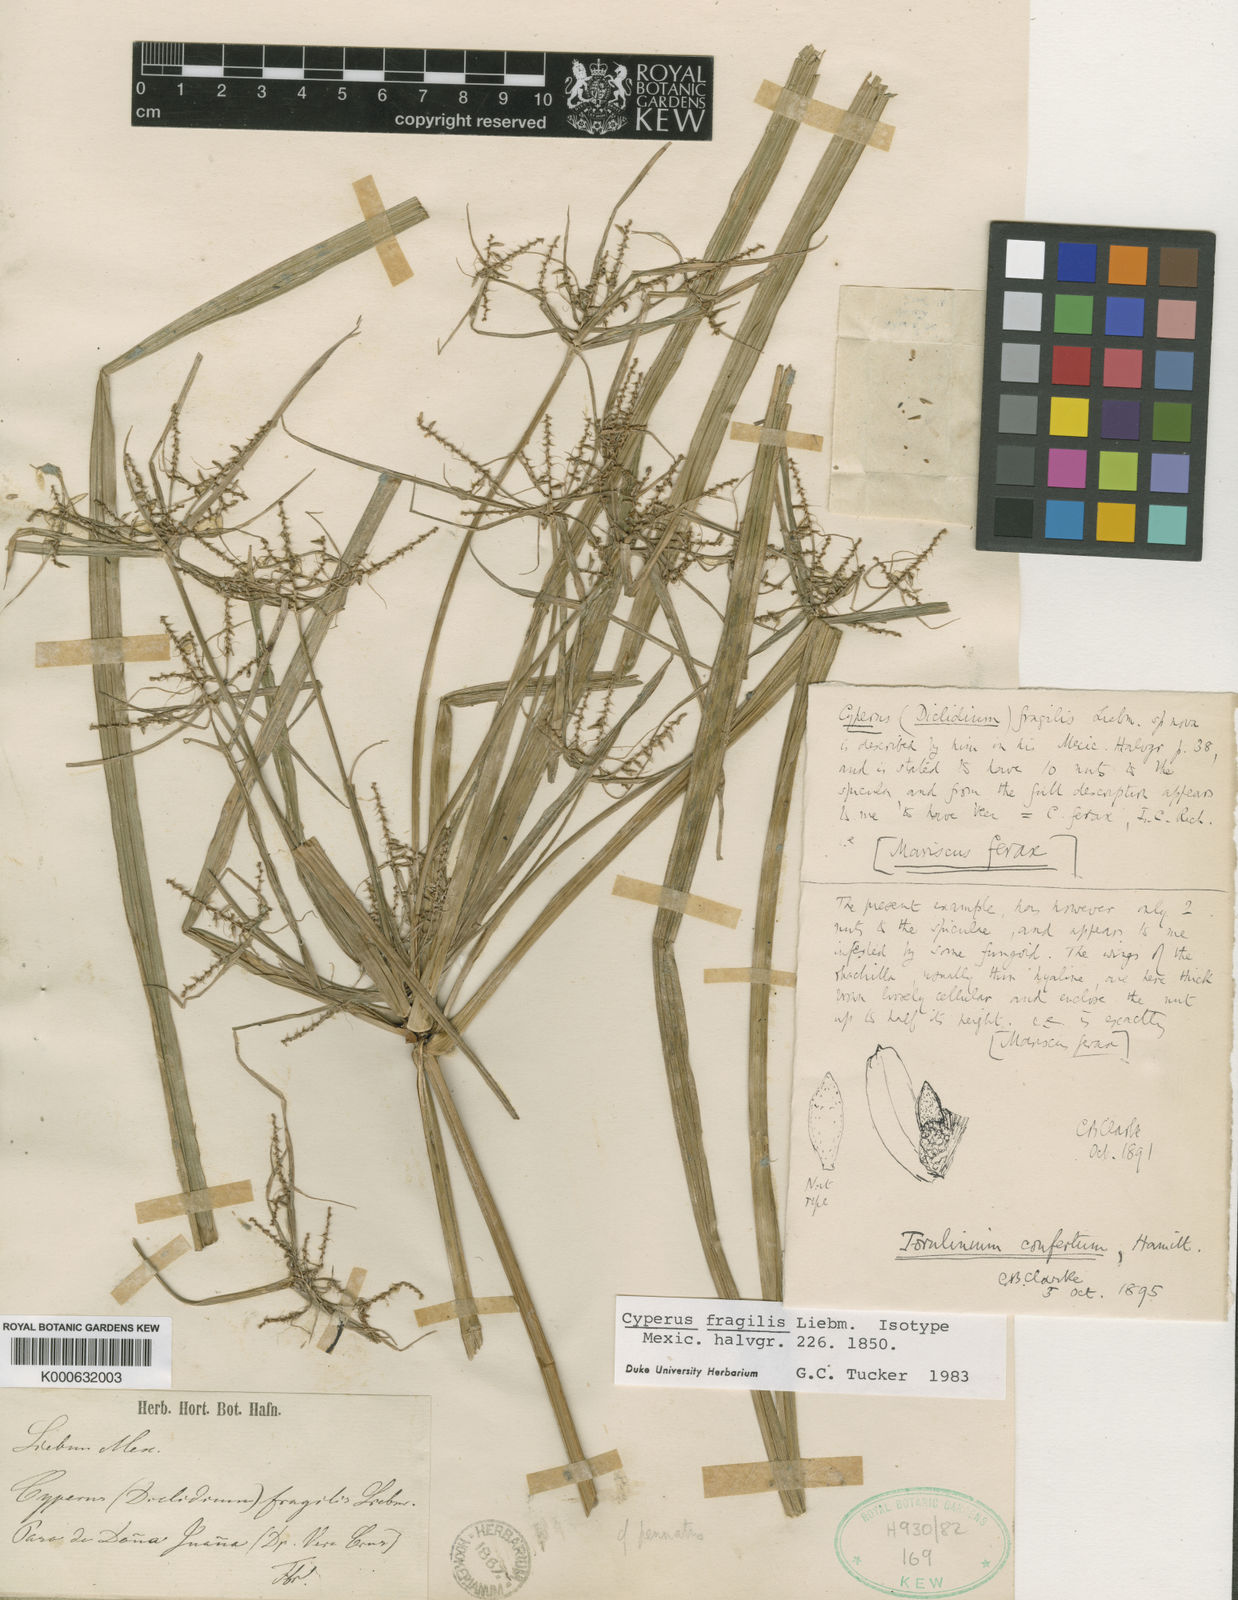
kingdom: Plantae
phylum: Tracheophyta
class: Liliopsida
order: Poales
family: Cyperaceae
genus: Cyperus
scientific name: Cyperus odoratus
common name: Fragrant flatsedge
